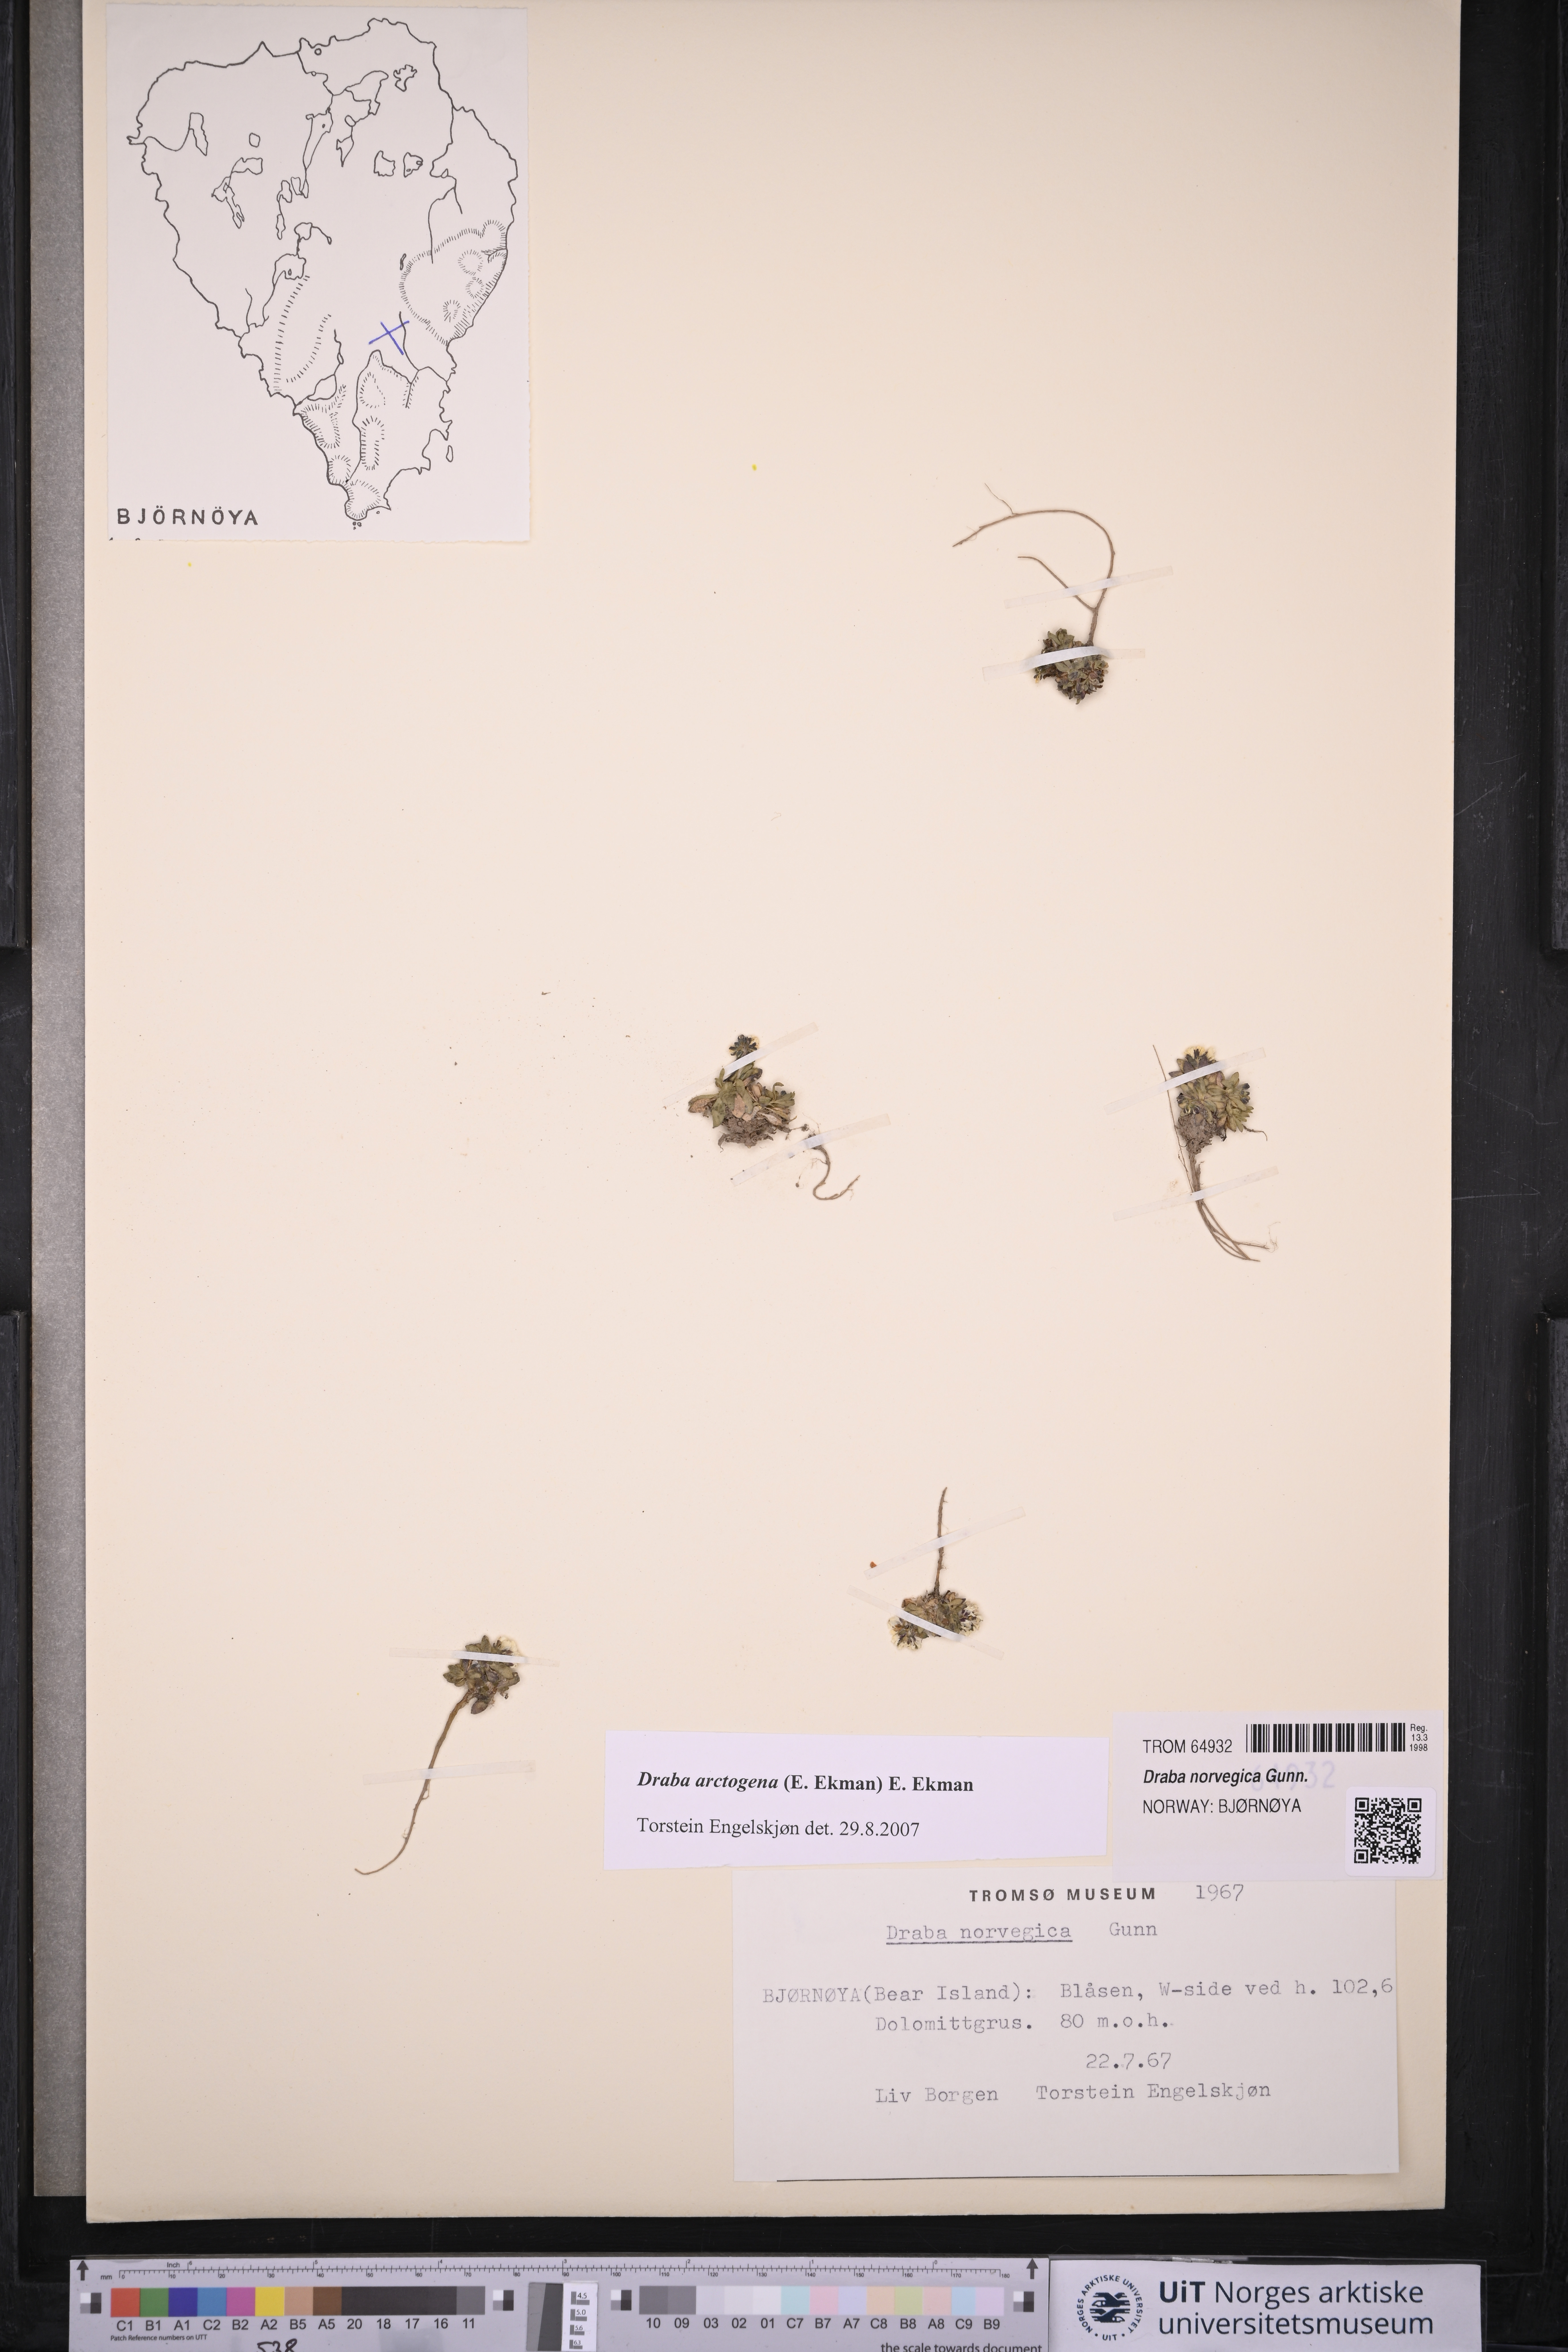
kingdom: Plantae
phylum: Tracheophyta
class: Magnoliopsida
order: Brassicales
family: Brassicaceae
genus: Draba
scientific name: Draba norvegica
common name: Rock whitlowgrass
